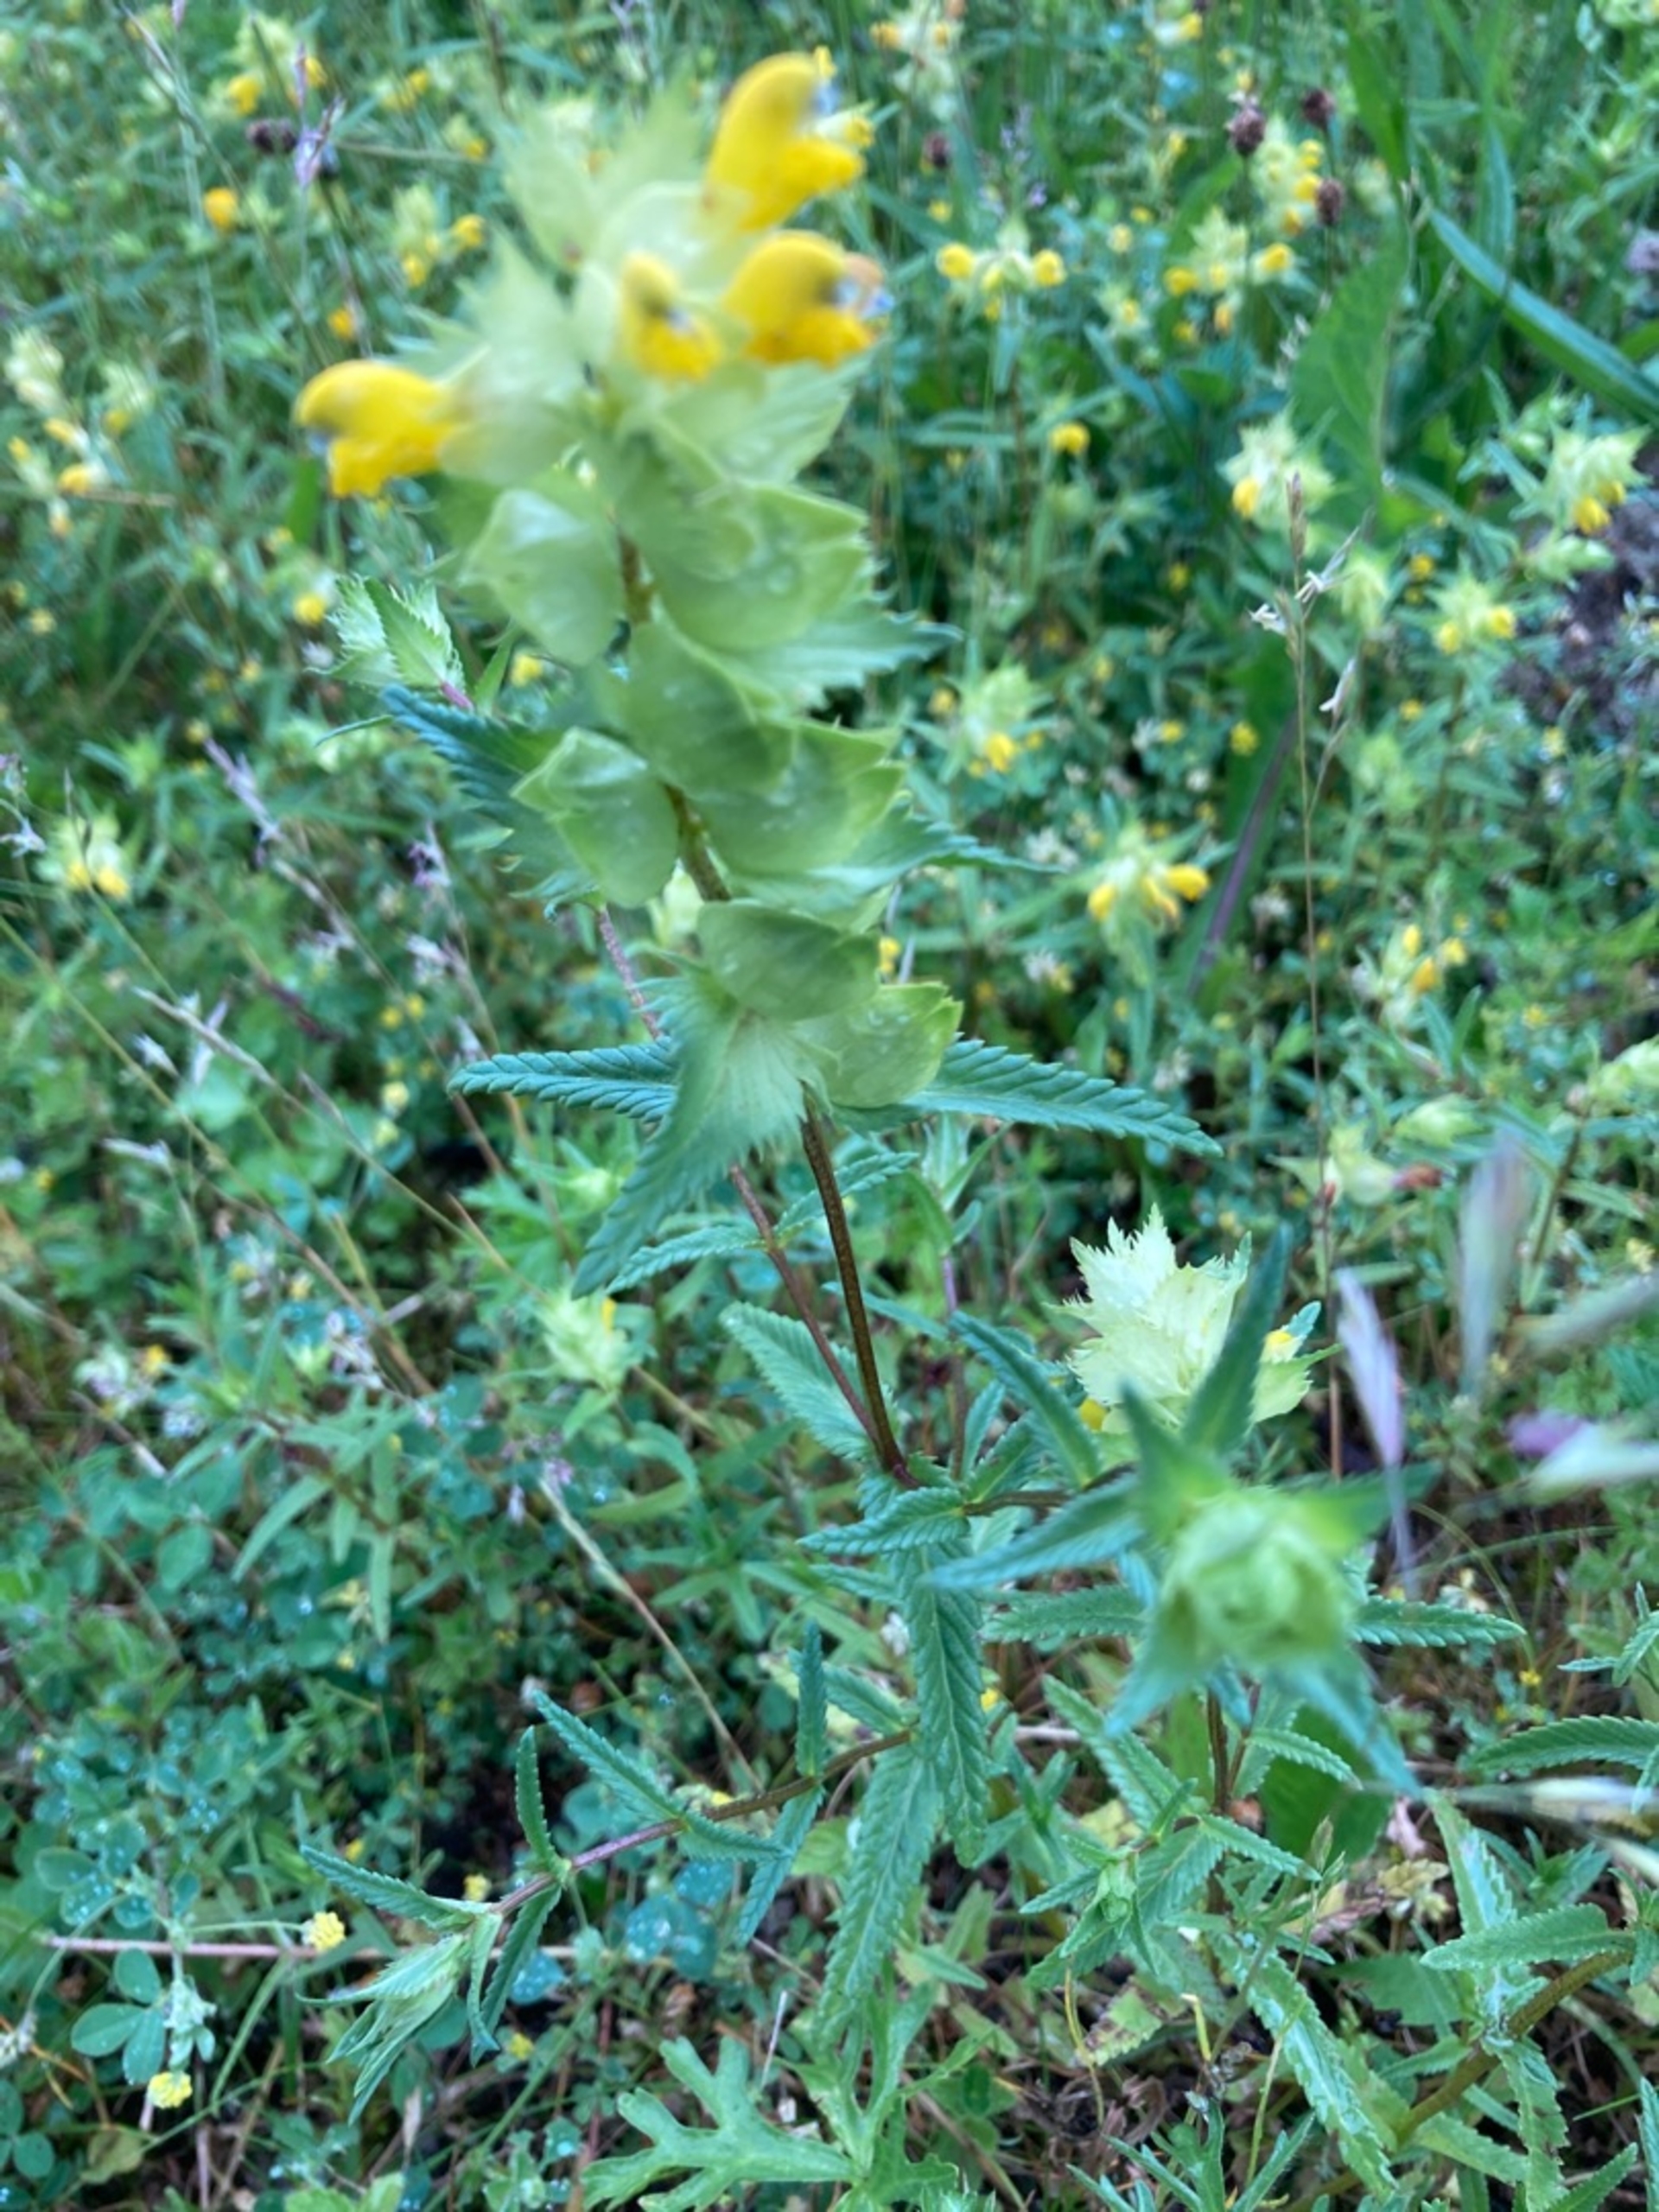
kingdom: Plantae
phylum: Tracheophyta
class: Magnoliopsida
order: Lamiales
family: Orobanchaceae
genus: Rhinanthus
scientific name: Rhinanthus
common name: Stor skjaller
